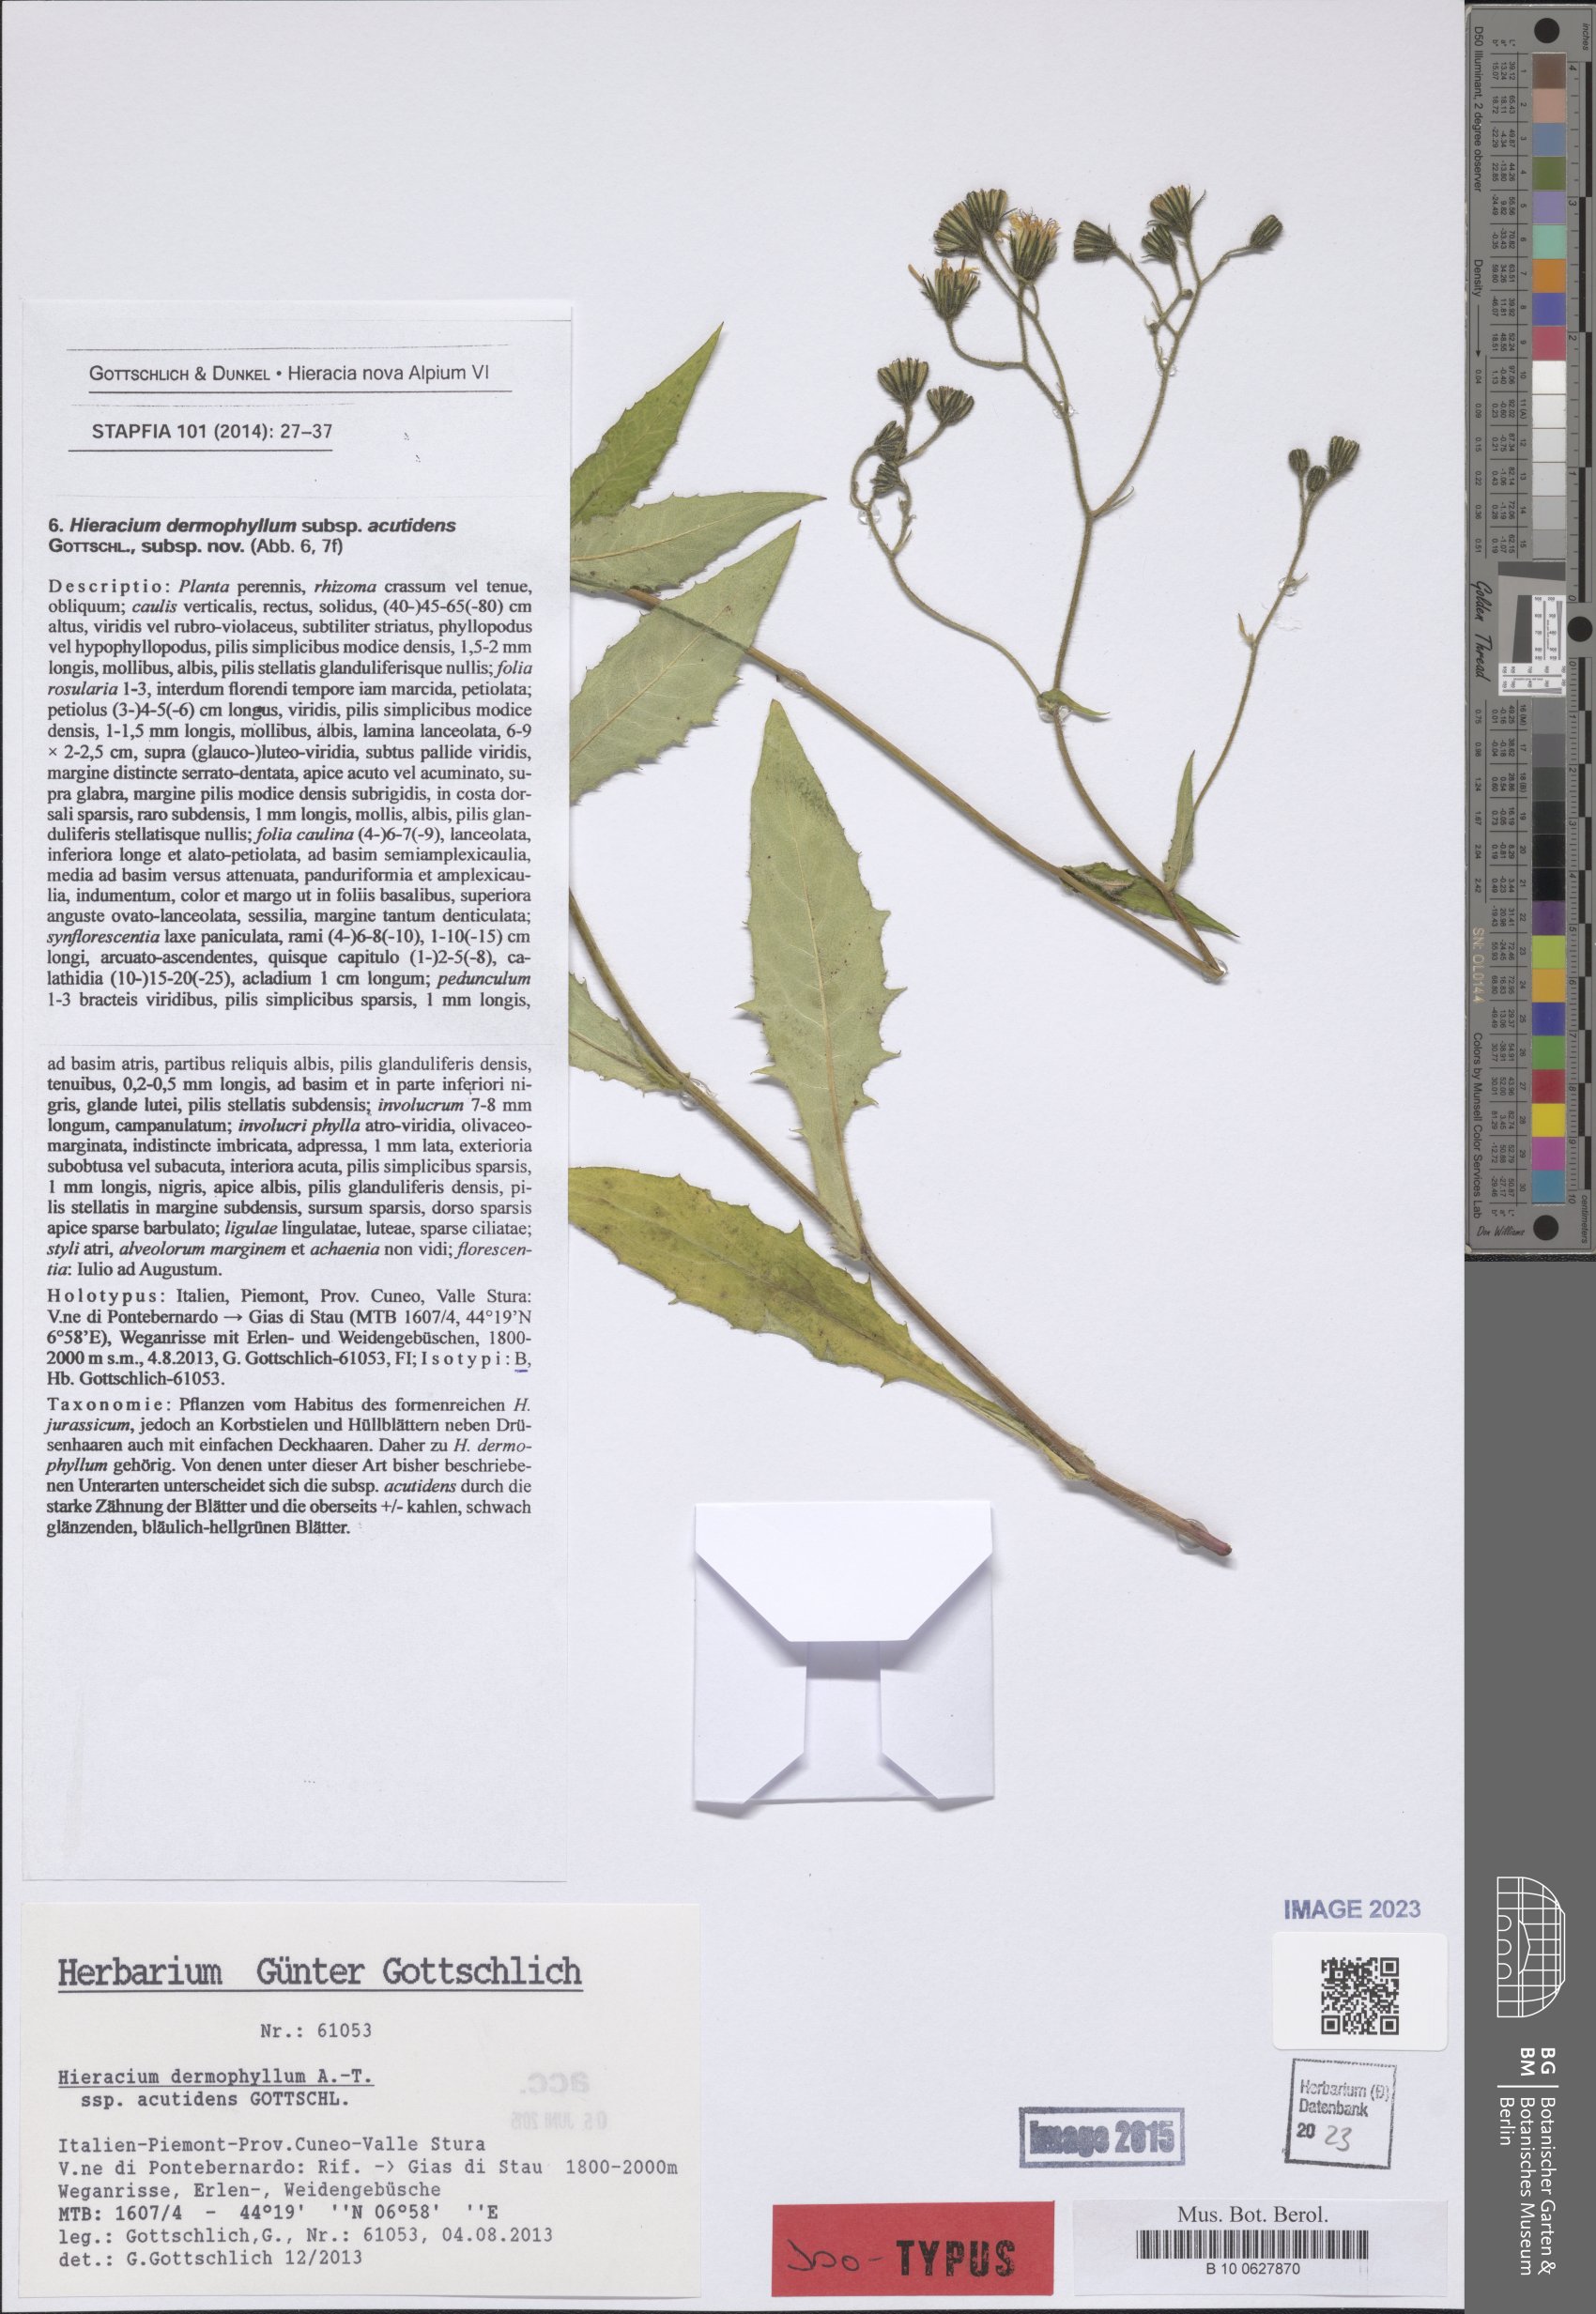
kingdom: Plantae
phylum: Tracheophyta
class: Magnoliopsida
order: Asterales
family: Asteraceae
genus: Hieracium
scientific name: Hieracium dermophyllum
